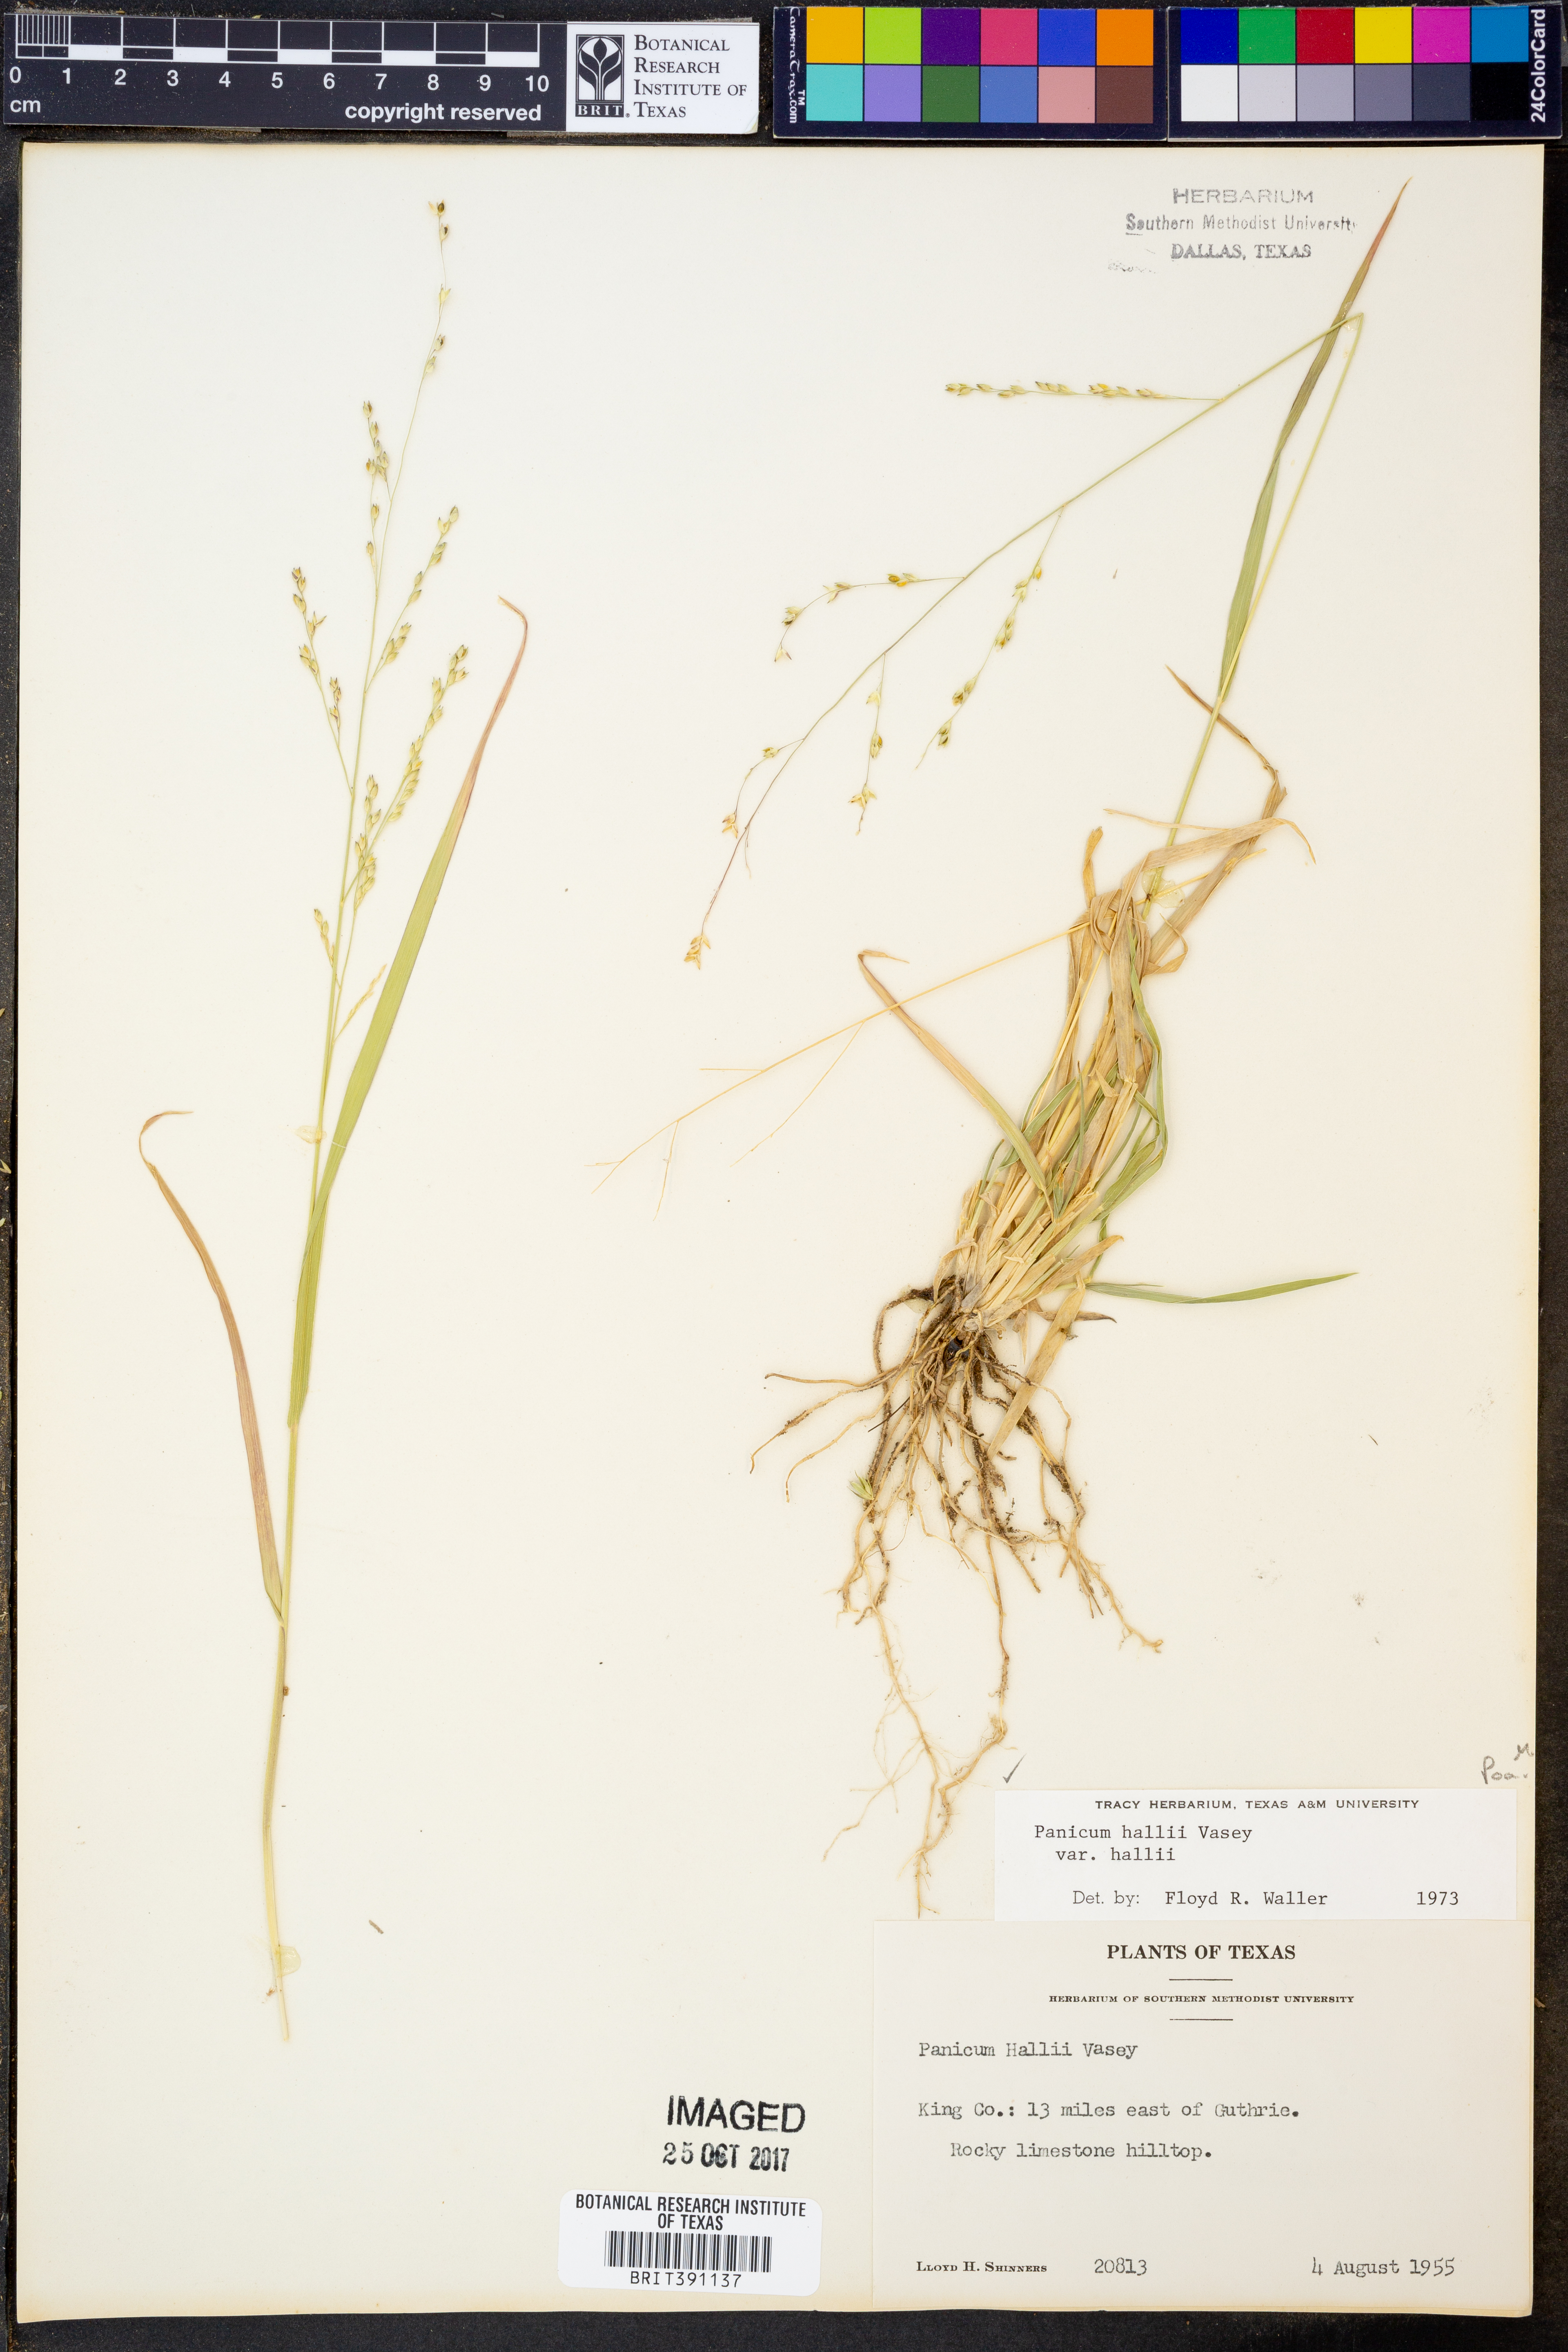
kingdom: Plantae
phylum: Tracheophyta
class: Liliopsida
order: Poales
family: Poaceae
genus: Panicum
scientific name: Panicum hallii
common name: Hall's witchgrass
